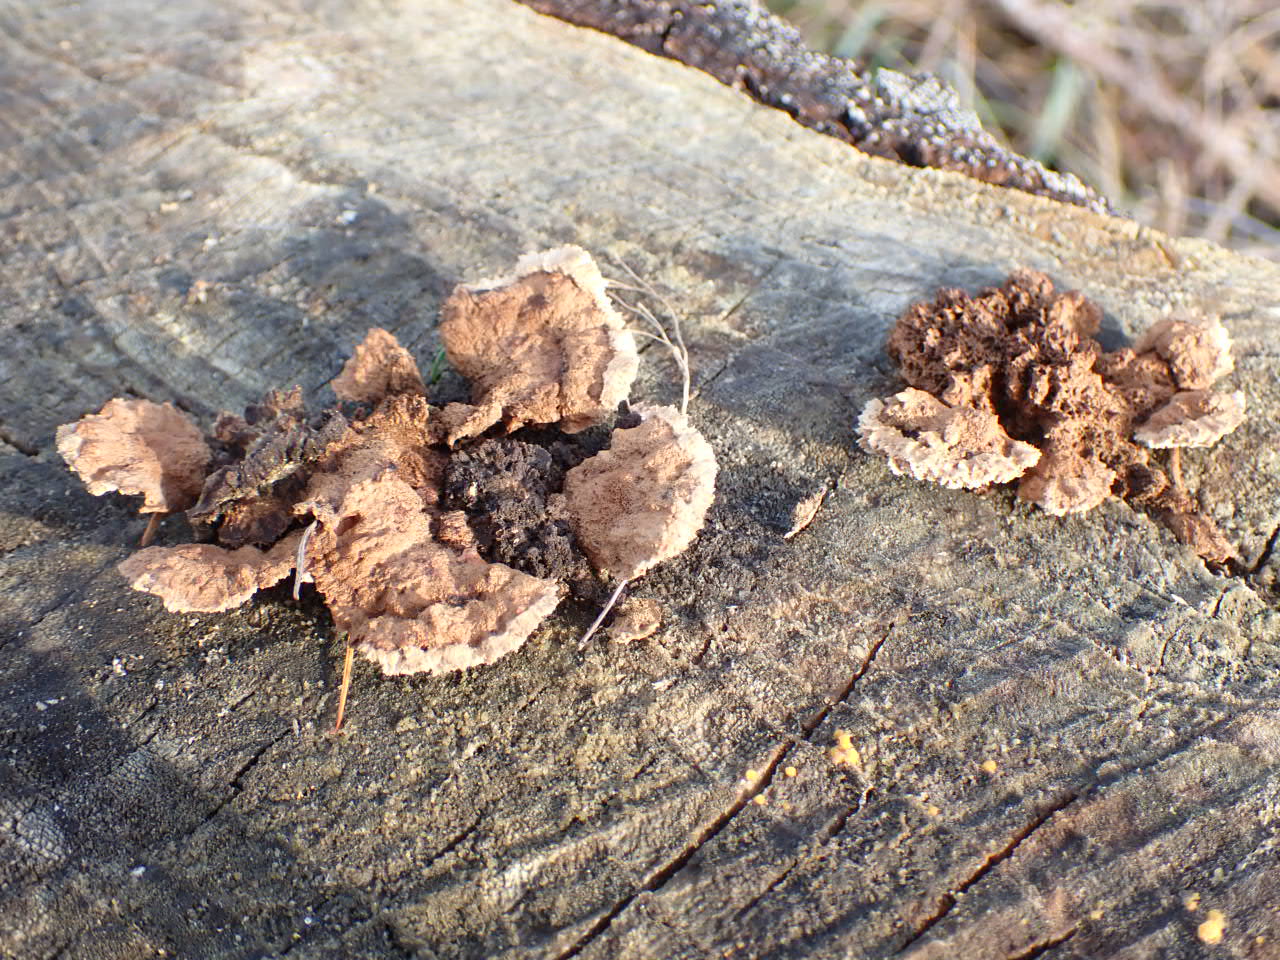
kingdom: Fungi
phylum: Basidiomycota
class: Agaricomycetes
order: Gloeophyllales
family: Gloeophyllaceae
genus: Gloeophyllum
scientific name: Gloeophyllum sepiarium
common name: fyrre-korkhat
